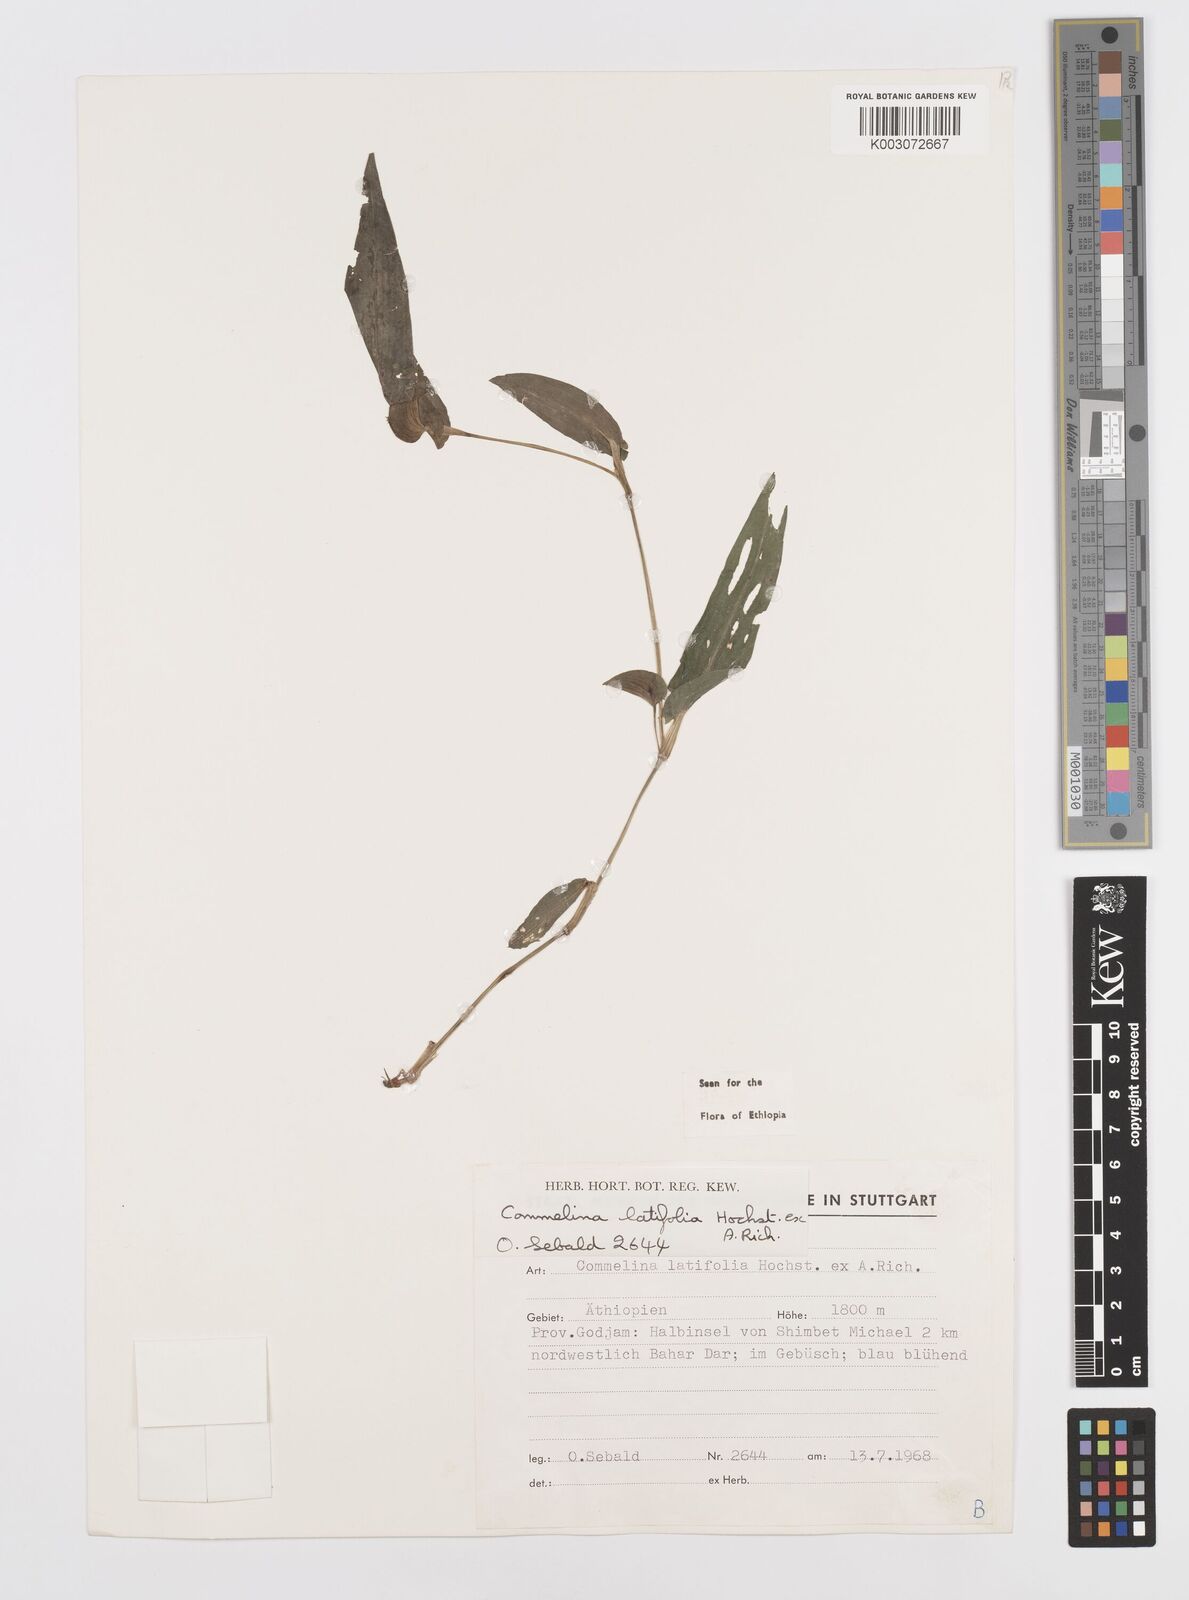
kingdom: Plantae
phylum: Tracheophyta
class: Liliopsida
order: Commelinales
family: Commelinaceae
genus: Commelina
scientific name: Commelina imberbis
